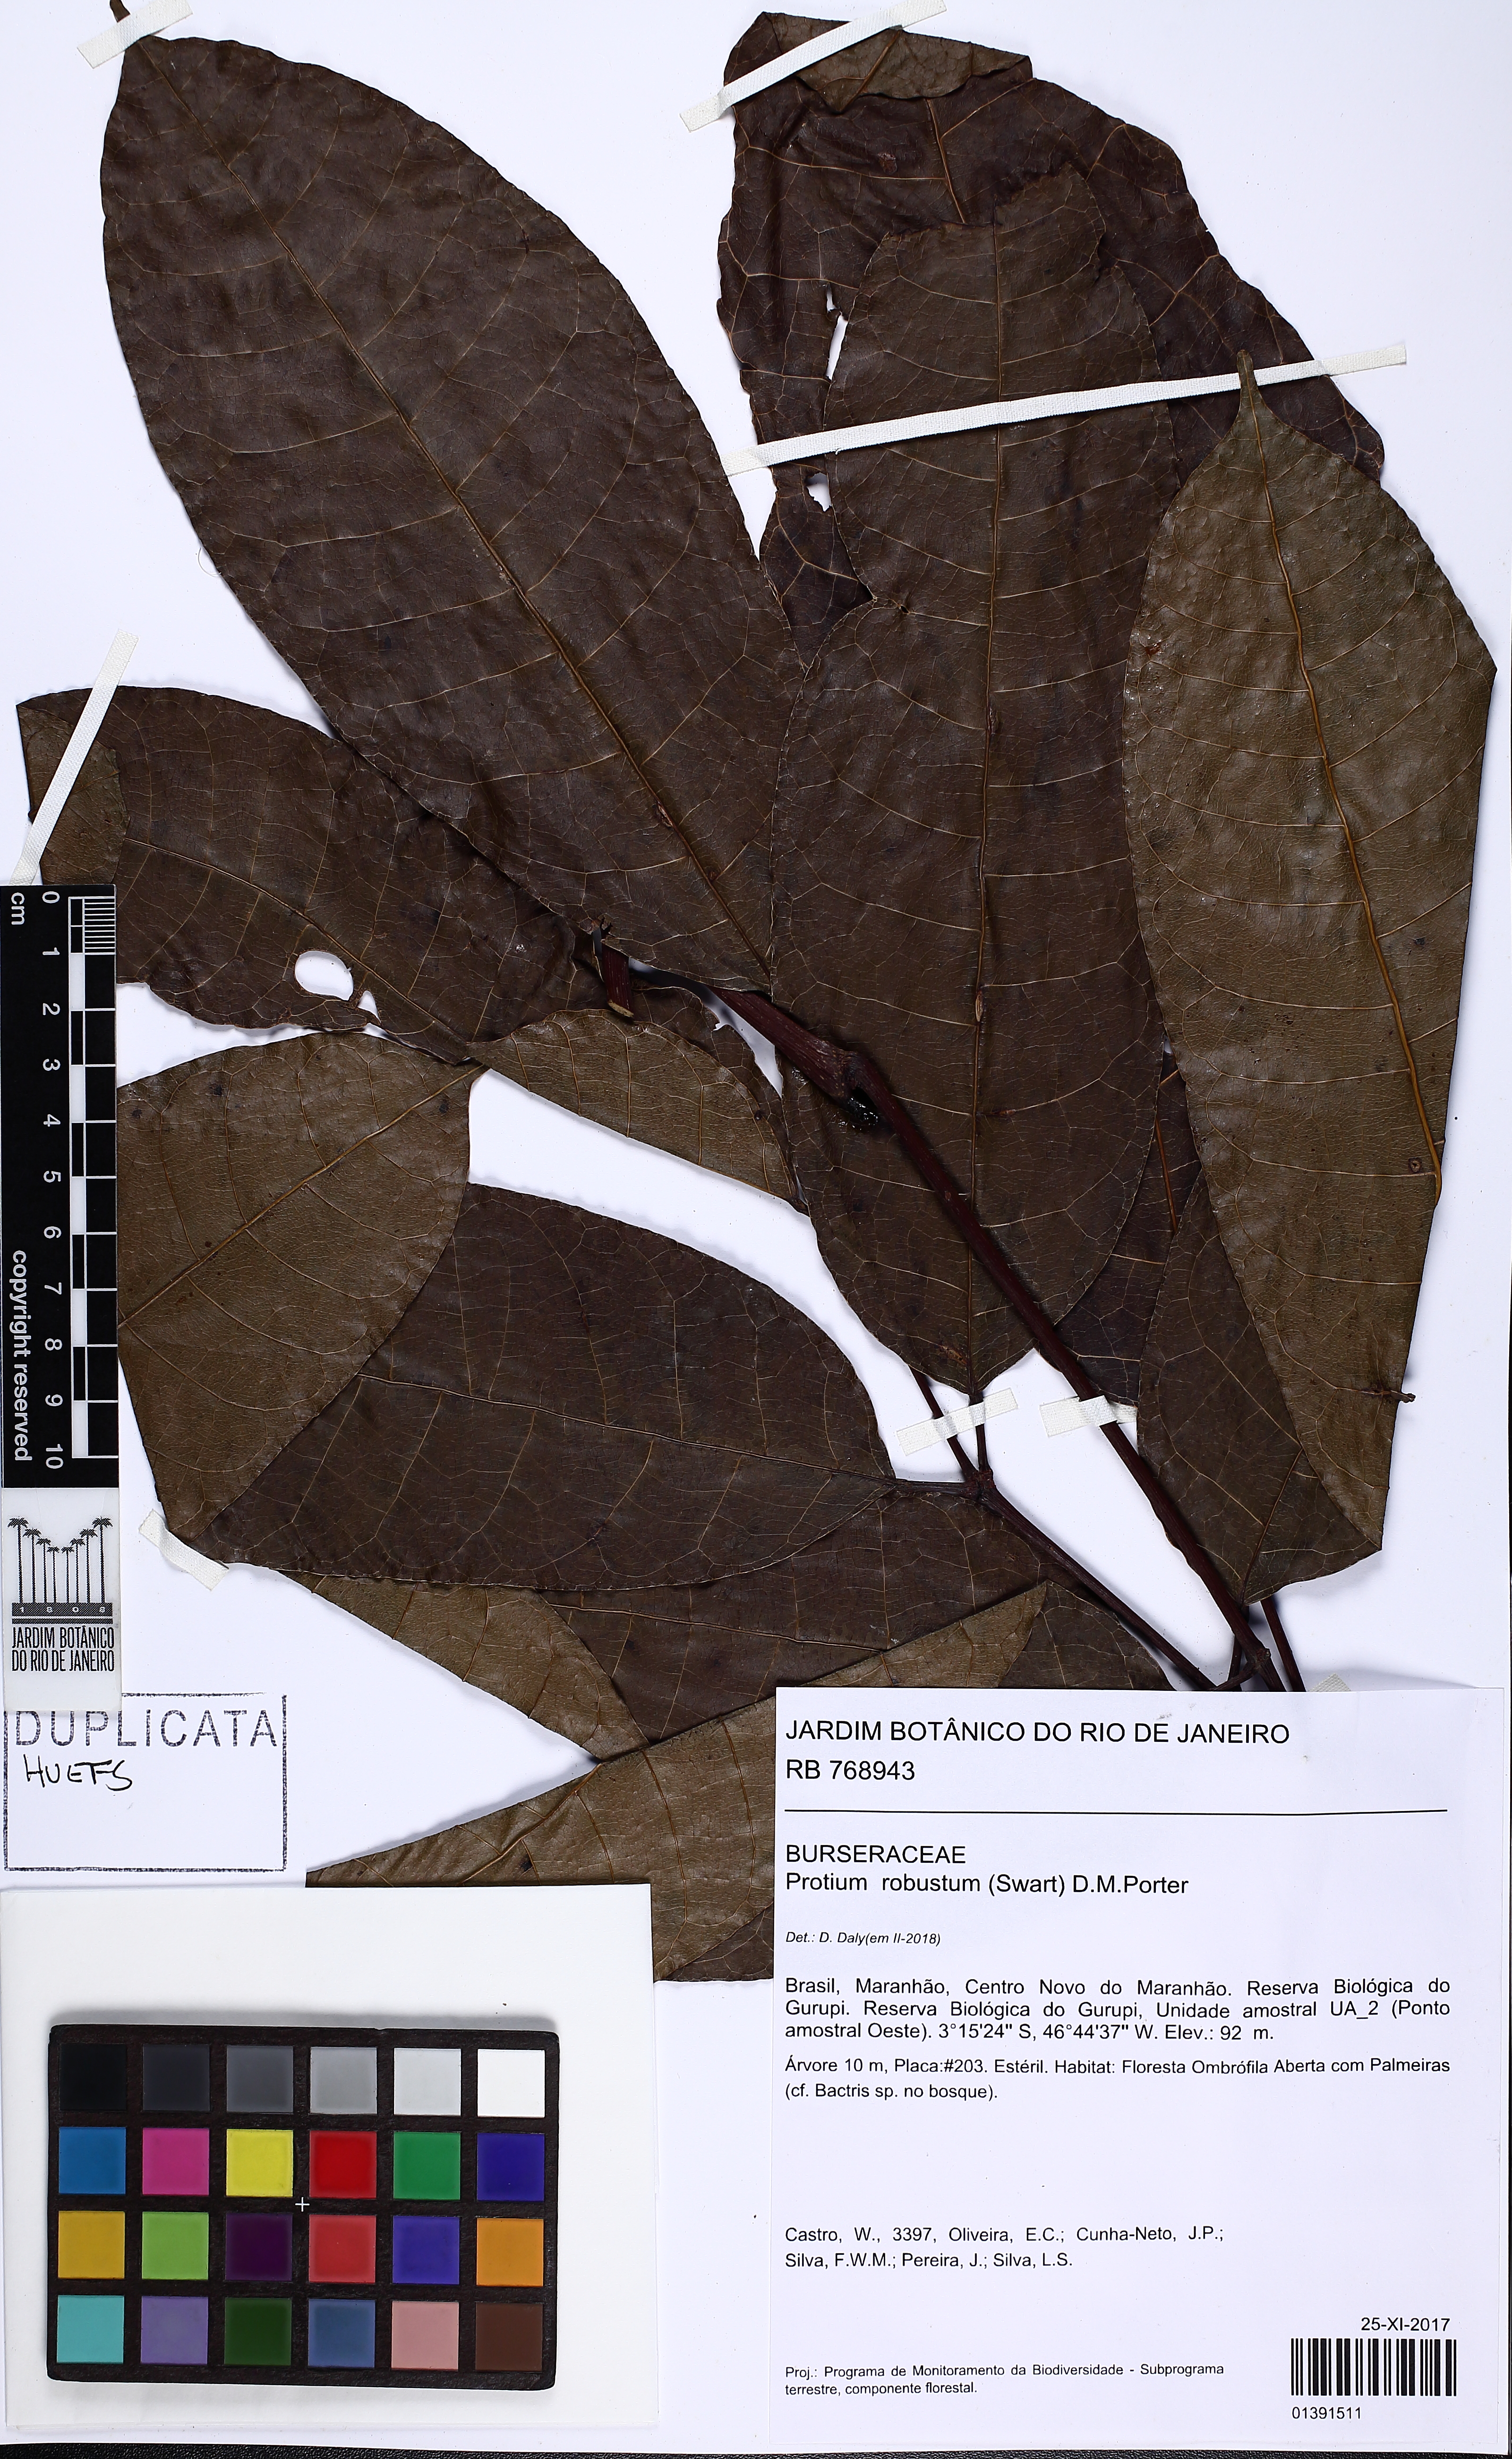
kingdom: Plantae
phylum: Tracheophyta
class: Magnoliopsida
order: Sapindales
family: Burseraceae
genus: Protium
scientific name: Protium robustum
